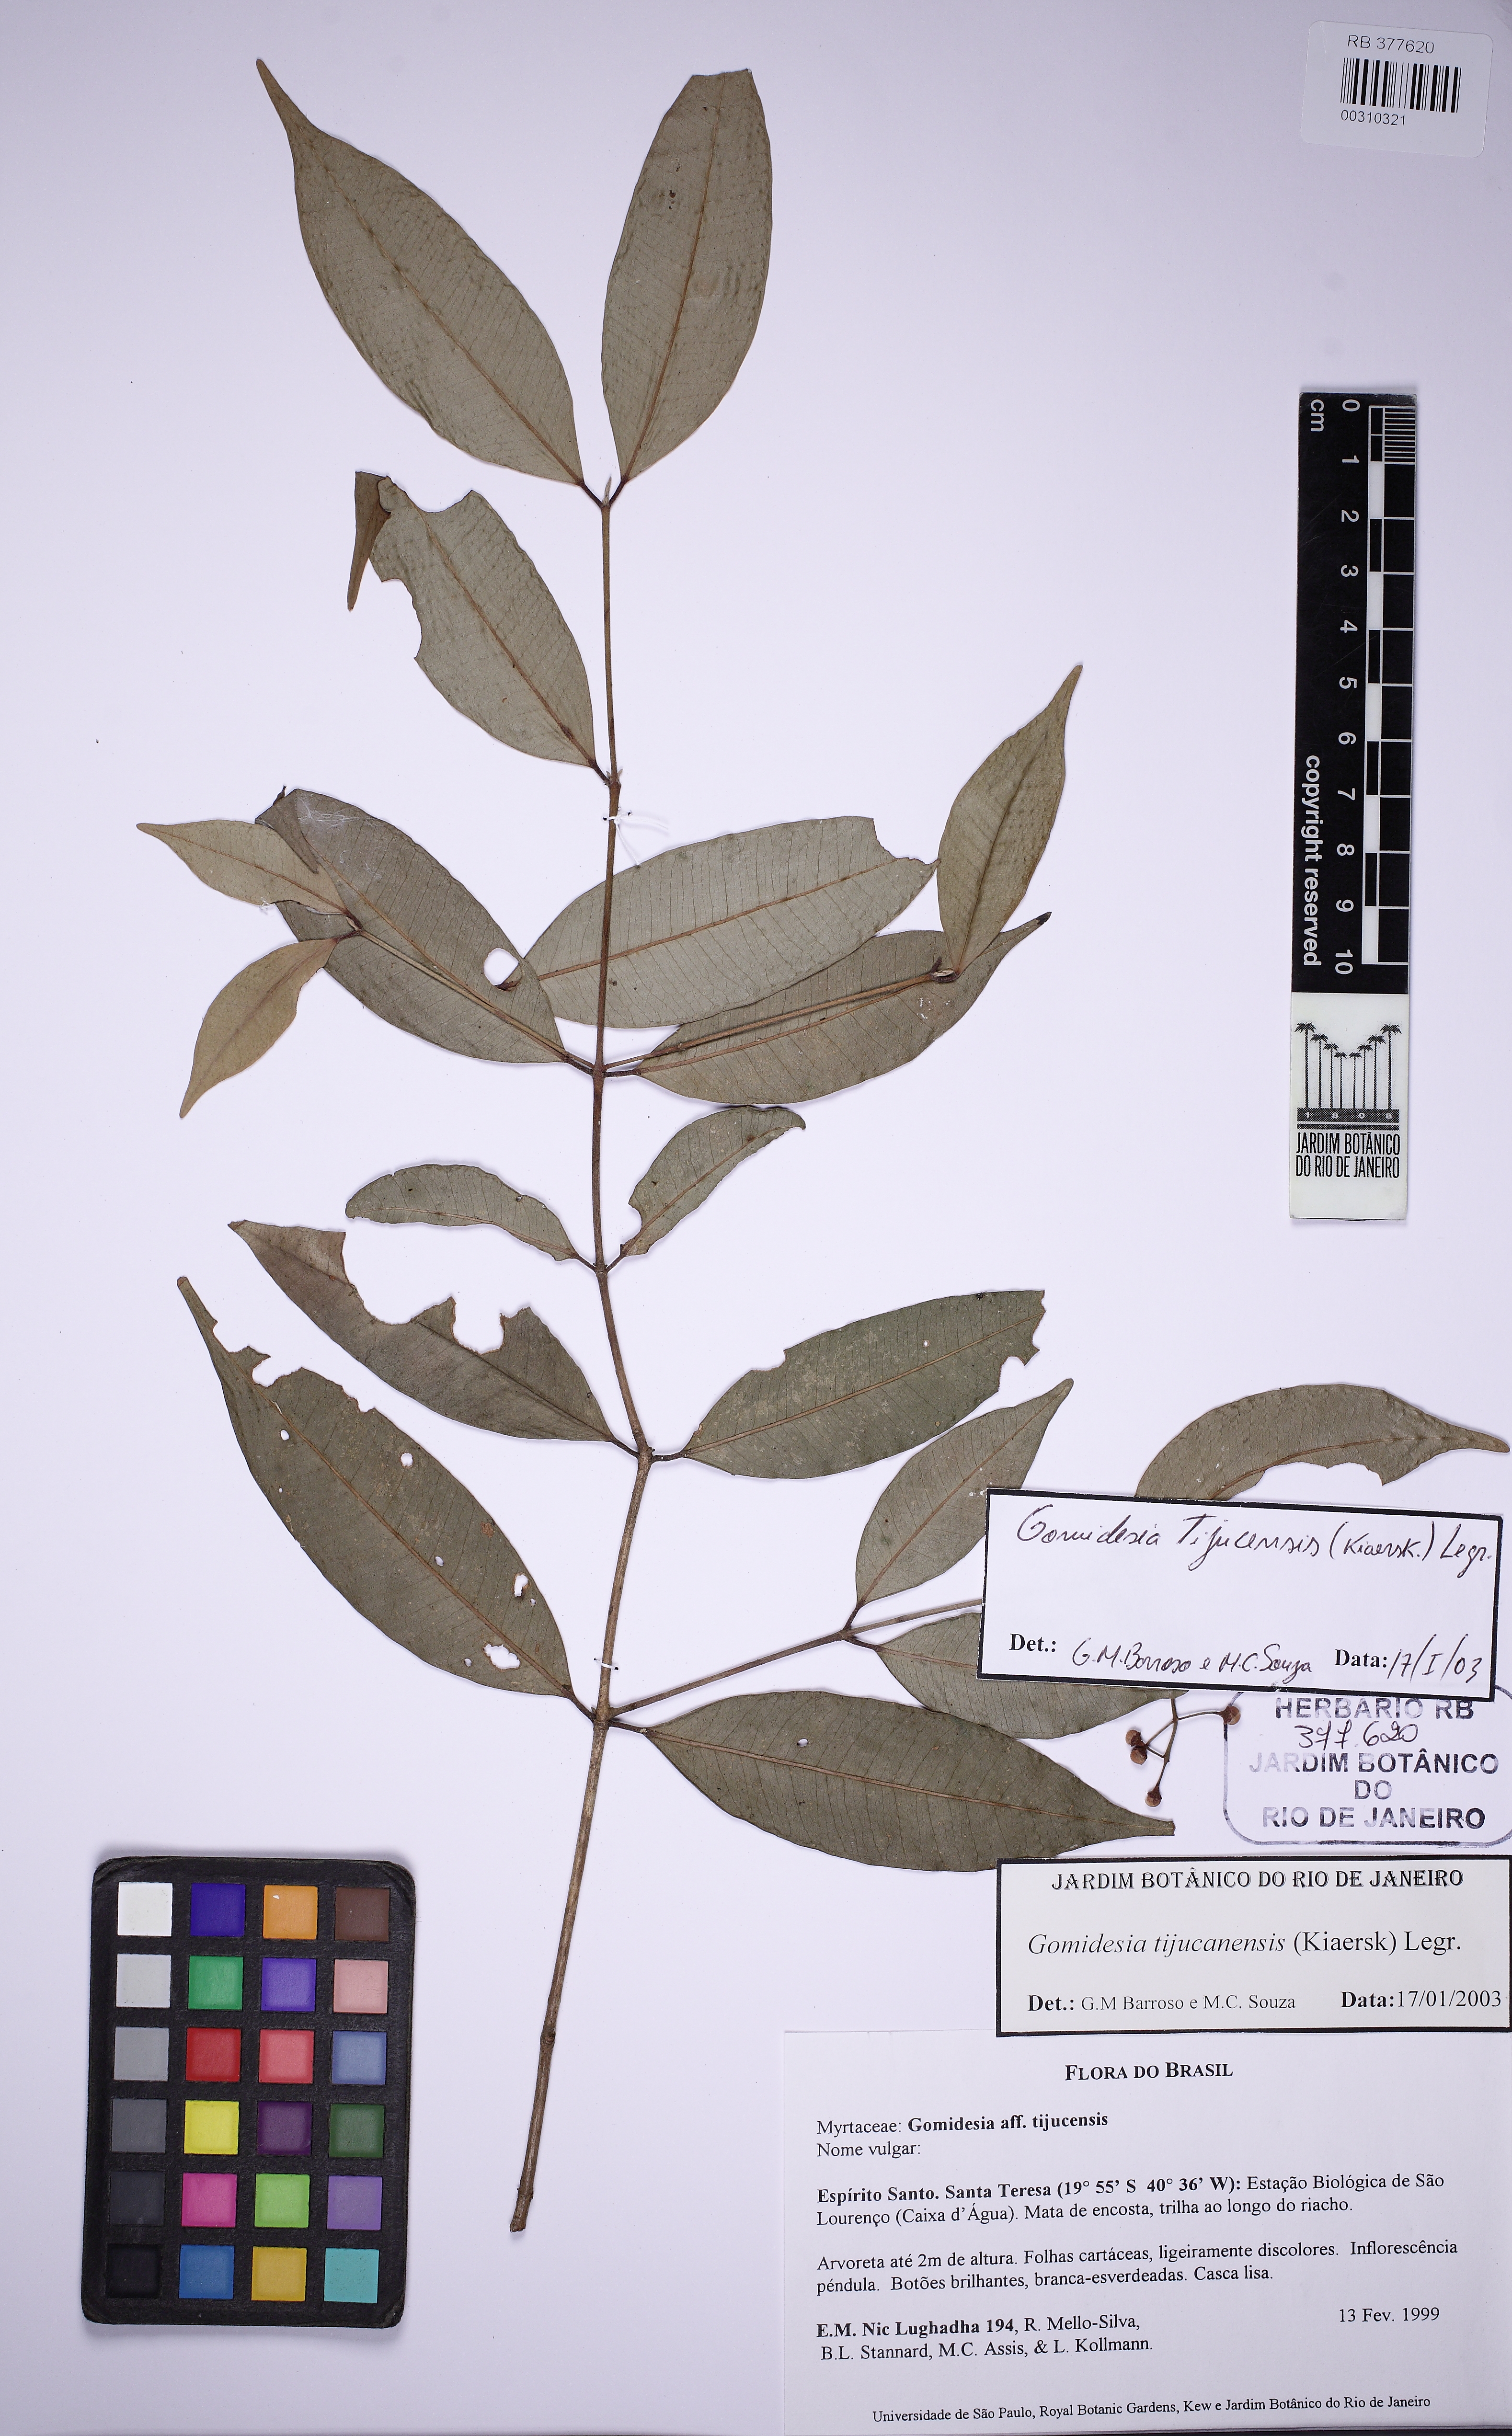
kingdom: Plantae
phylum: Tracheophyta
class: Magnoliopsida
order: Myrtales
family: Myrtaceae
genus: Myrcia
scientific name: Myrcia curtipendula
